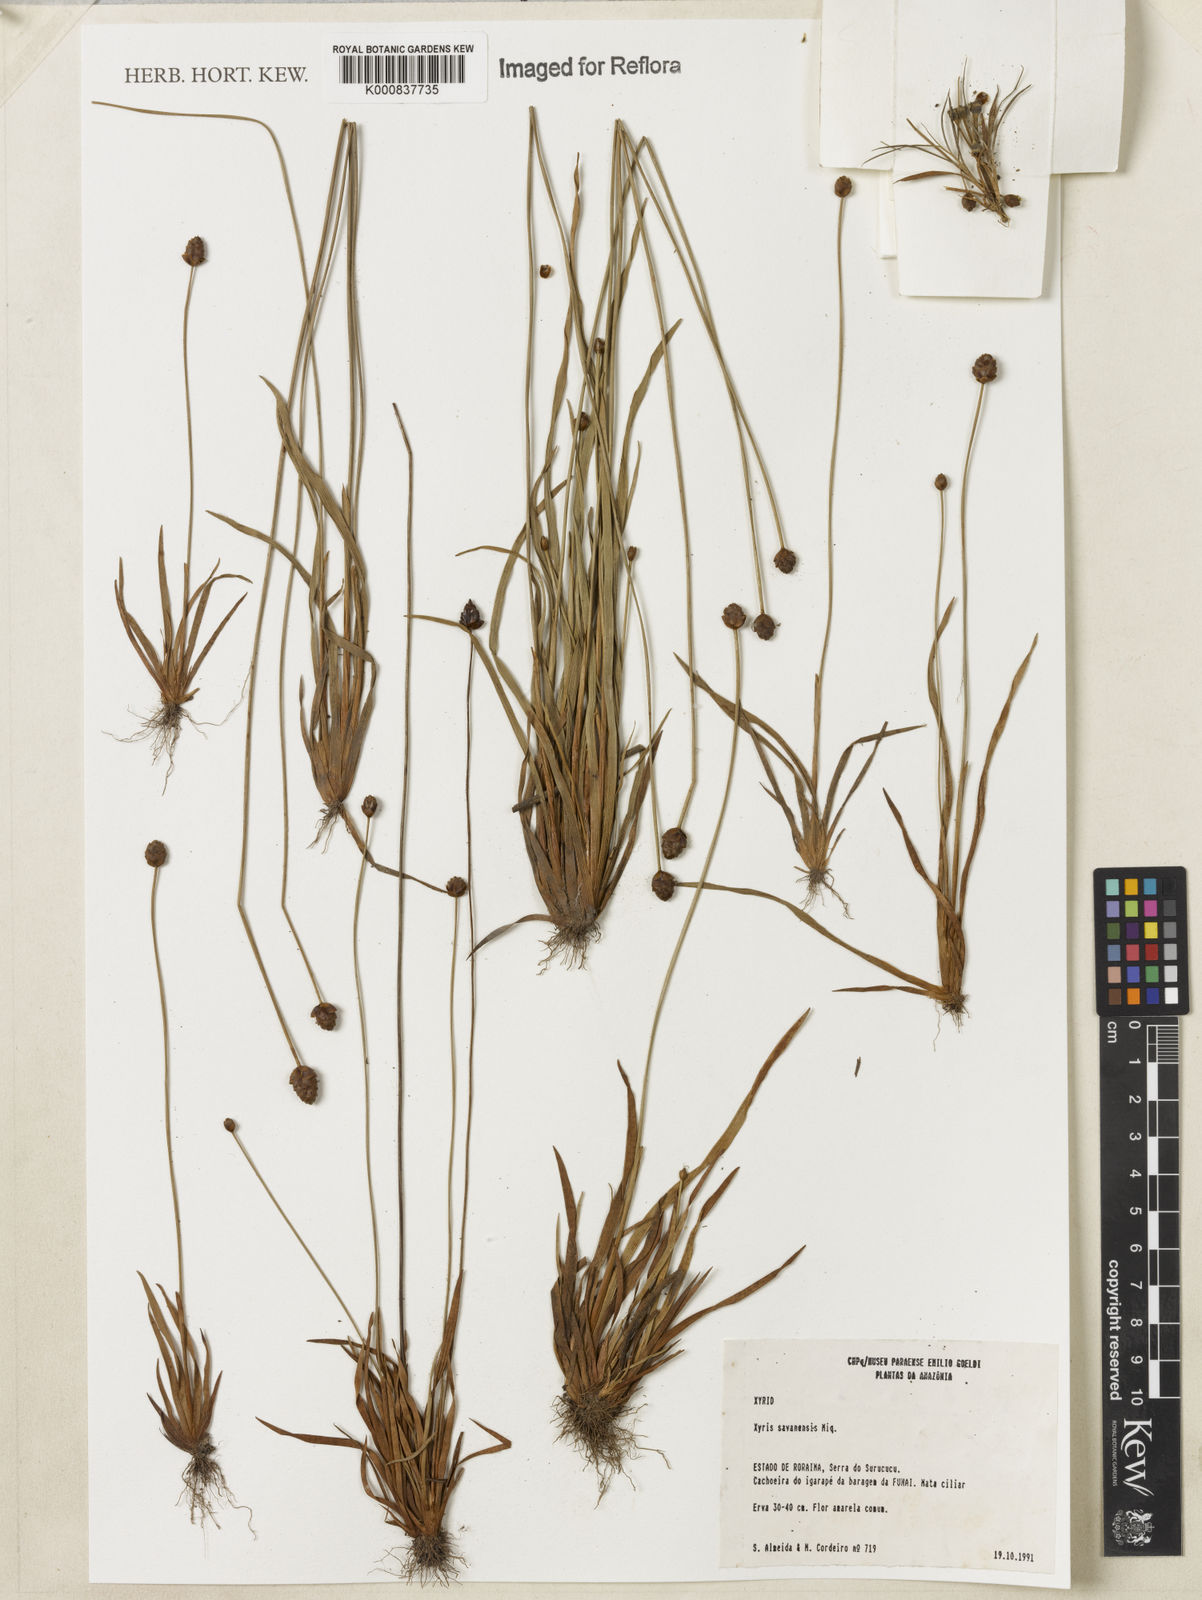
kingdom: Plantae
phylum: Tracheophyta
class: Liliopsida
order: Poales
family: Xyridaceae
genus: Xyris
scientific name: Xyris savanensis
